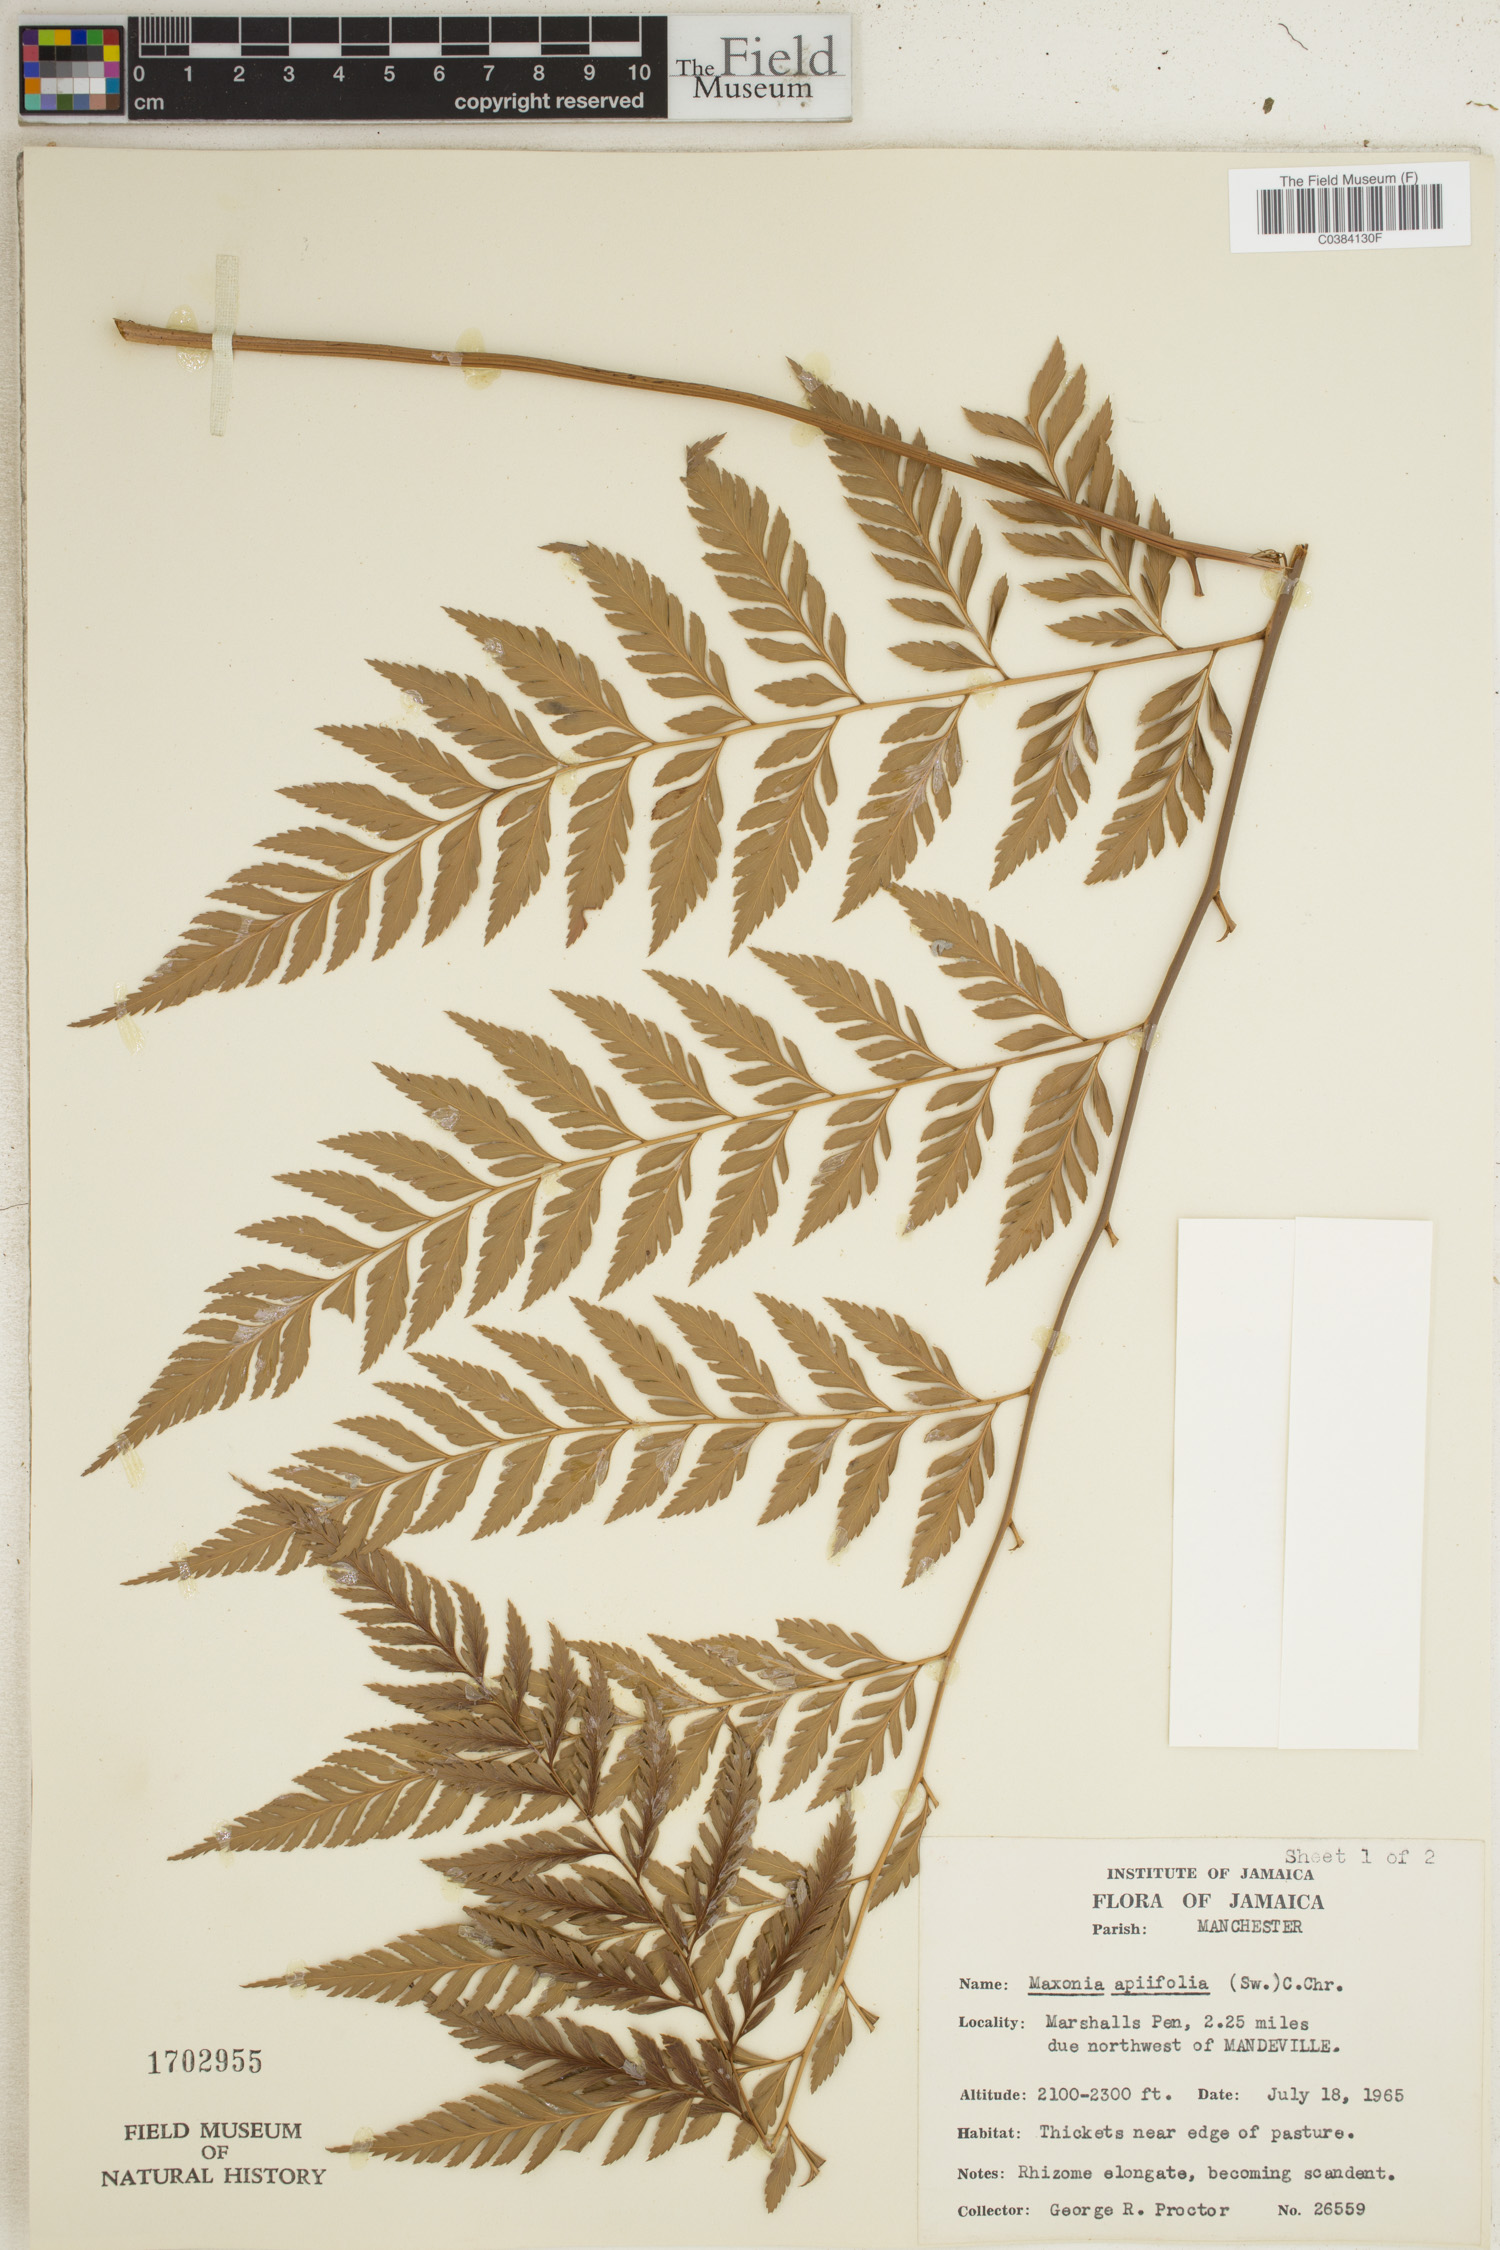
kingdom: Plantae
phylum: Tracheophyta
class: Polypodiopsida
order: Polypodiales
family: Dryopteridaceae
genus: Maxonia
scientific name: Maxonia apiifolia
